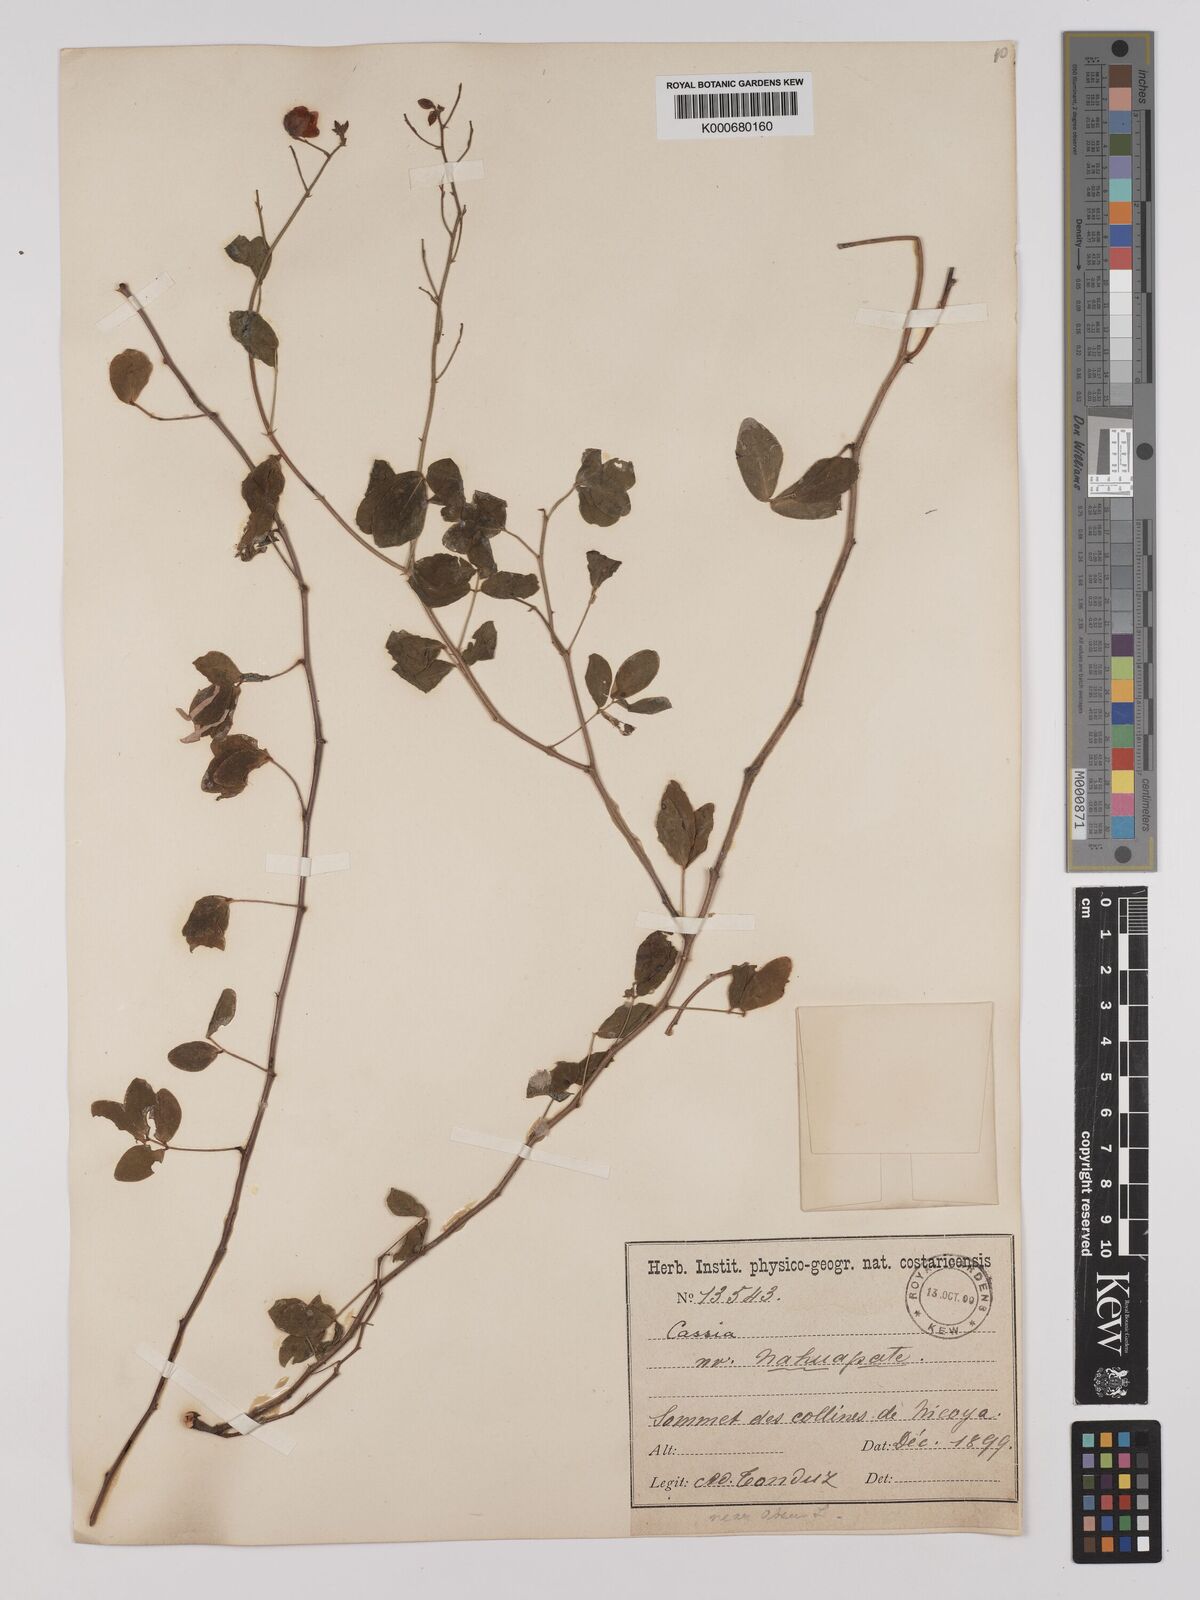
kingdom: Plantae
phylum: Tracheophyta
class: Magnoliopsida
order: Fabales
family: Fabaceae
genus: Chamaecrista
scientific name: Chamaecrista hispidula
